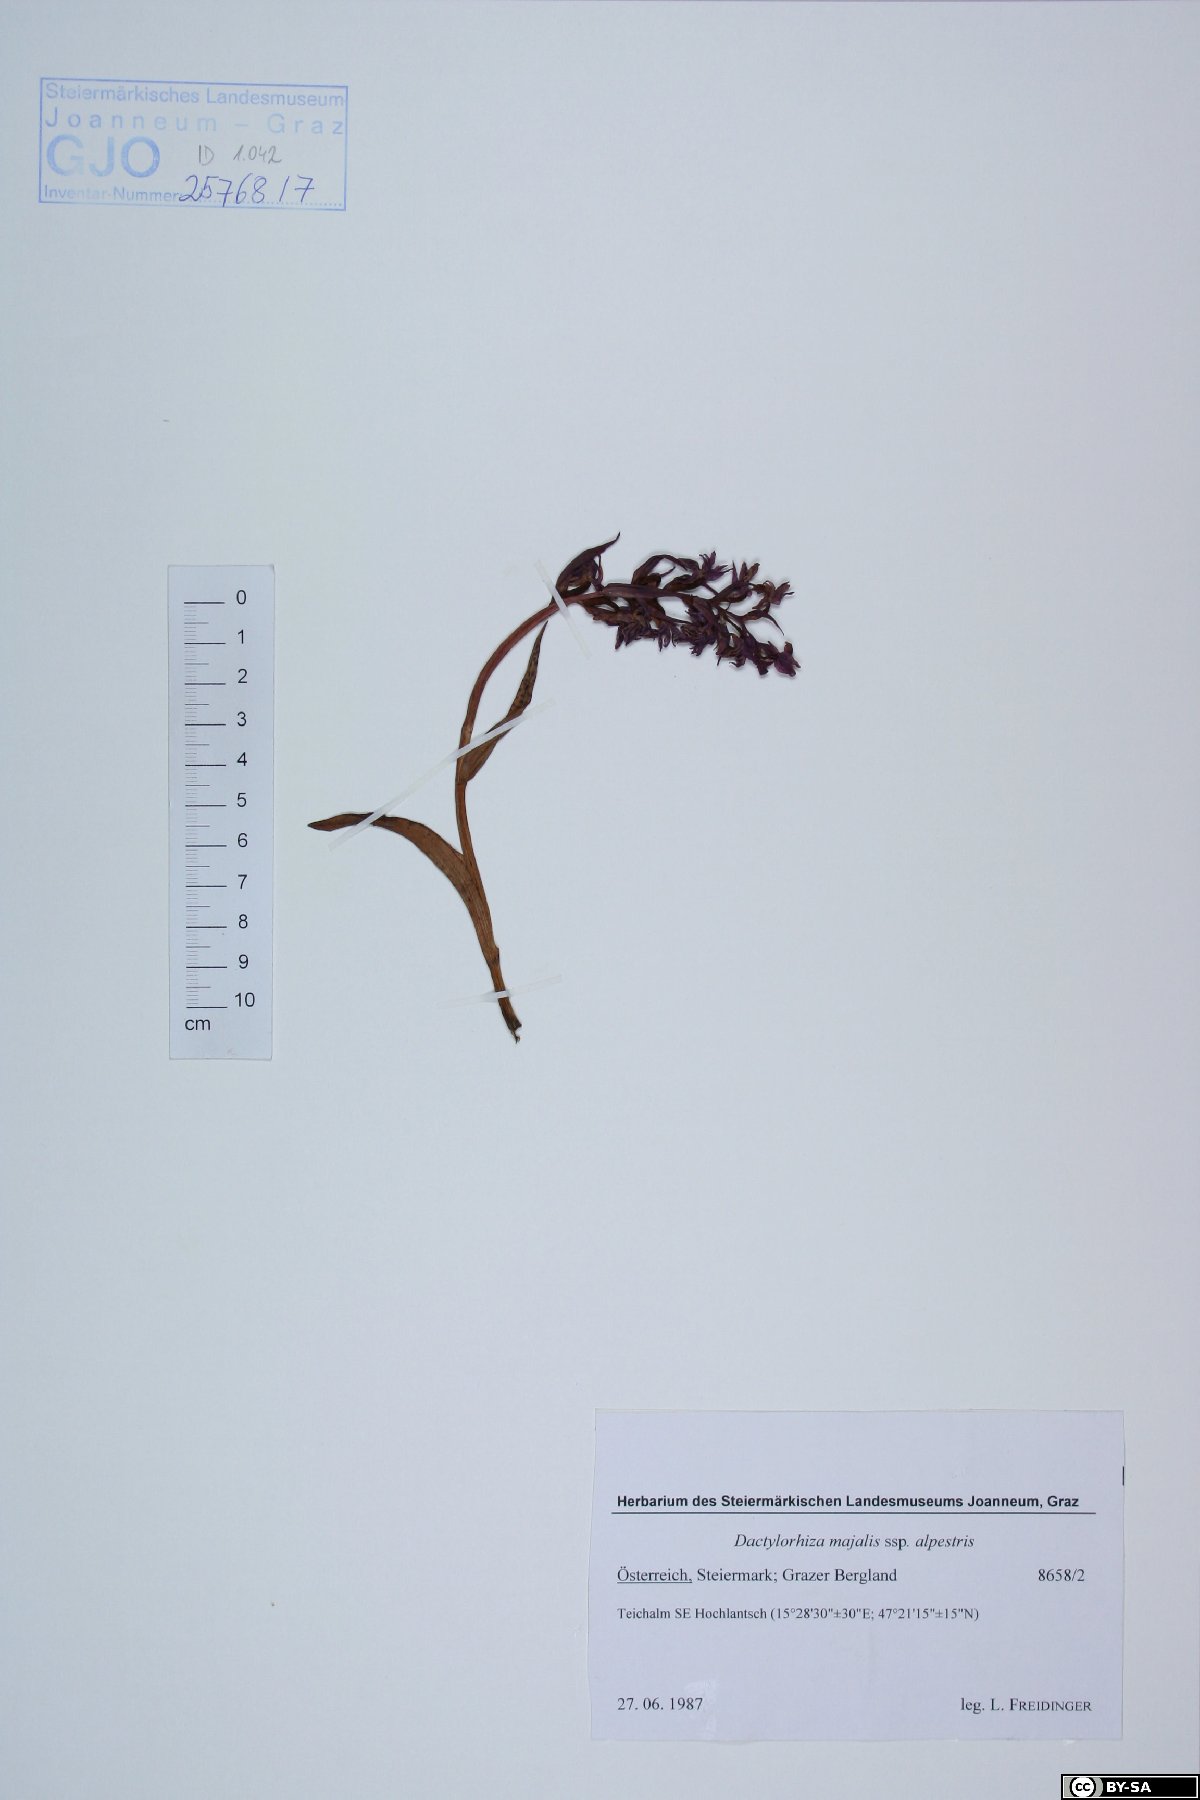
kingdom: Plantae
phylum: Tracheophyta
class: Liliopsida
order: Asparagales
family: Orchidaceae
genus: Dactylorhiza
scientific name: Dactylorhiza majalis
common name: Marsh orchid
